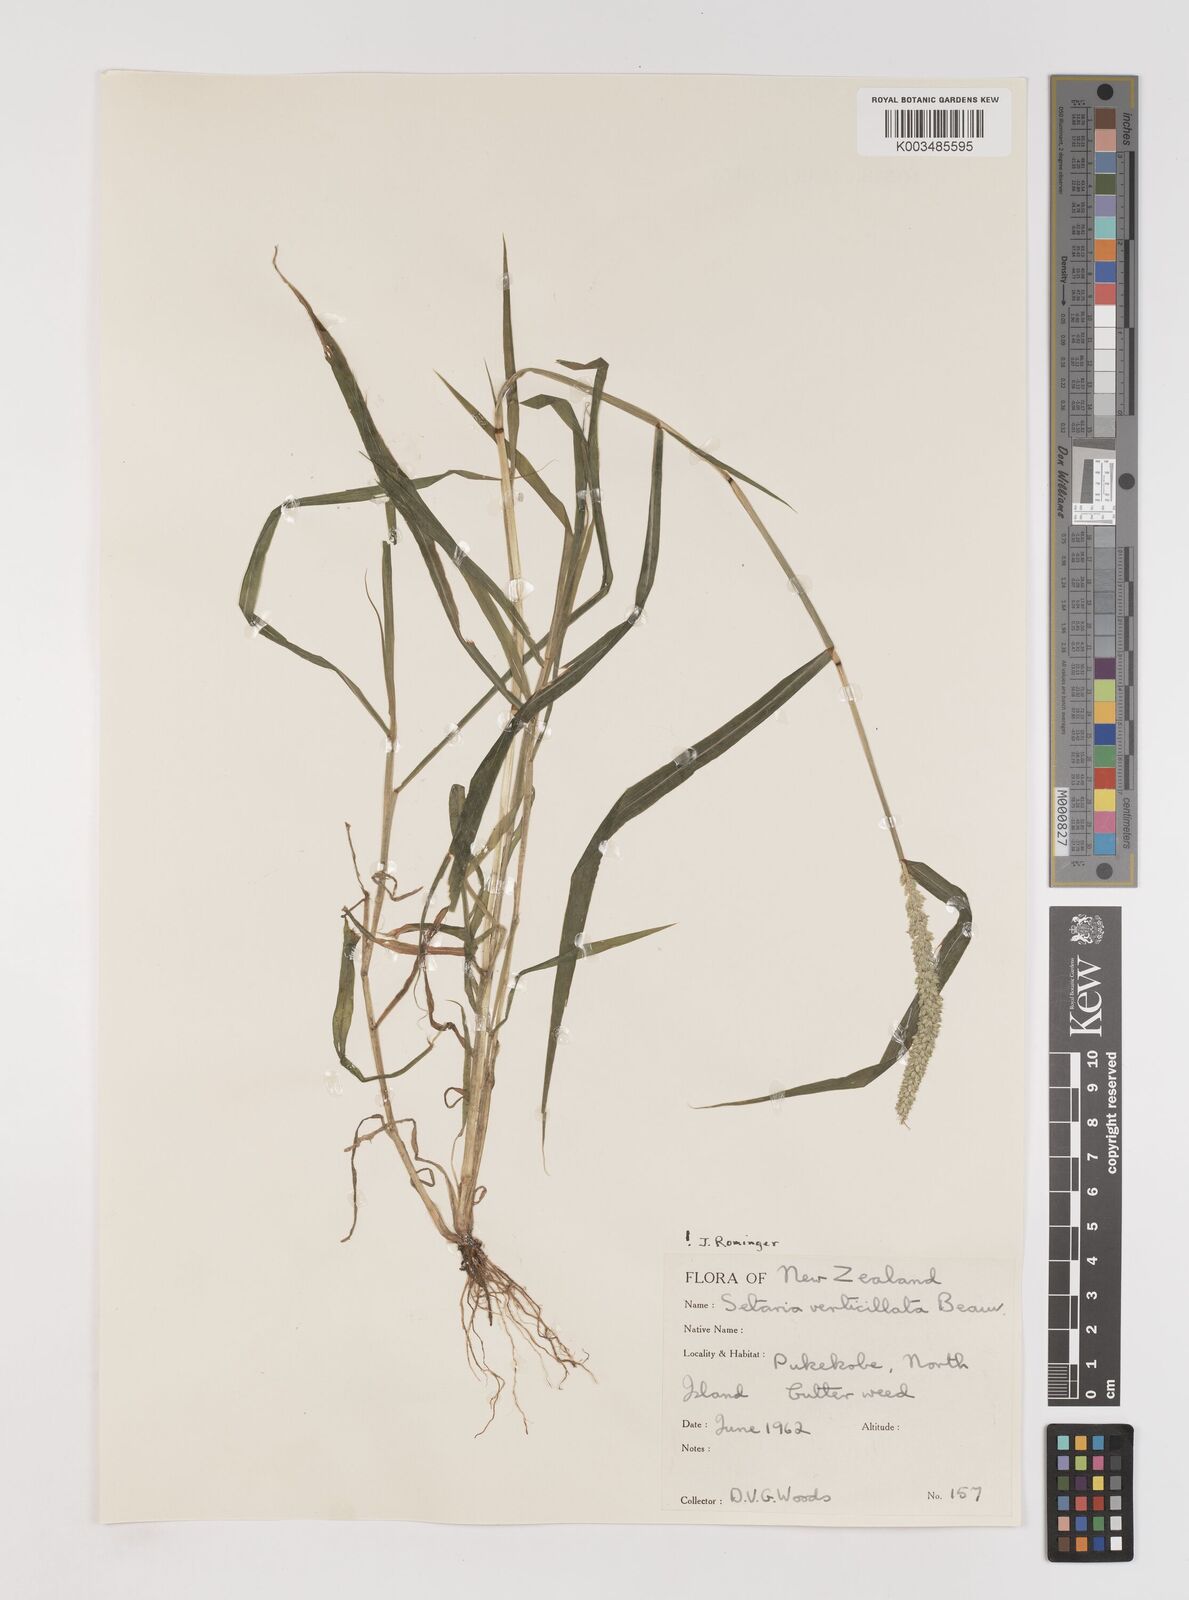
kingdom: Plantae
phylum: Tracheophyta
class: Liliopsida
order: Poales
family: Poaceae
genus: Setaria
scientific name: Setaria verticillata
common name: Hooked bristlegrass
